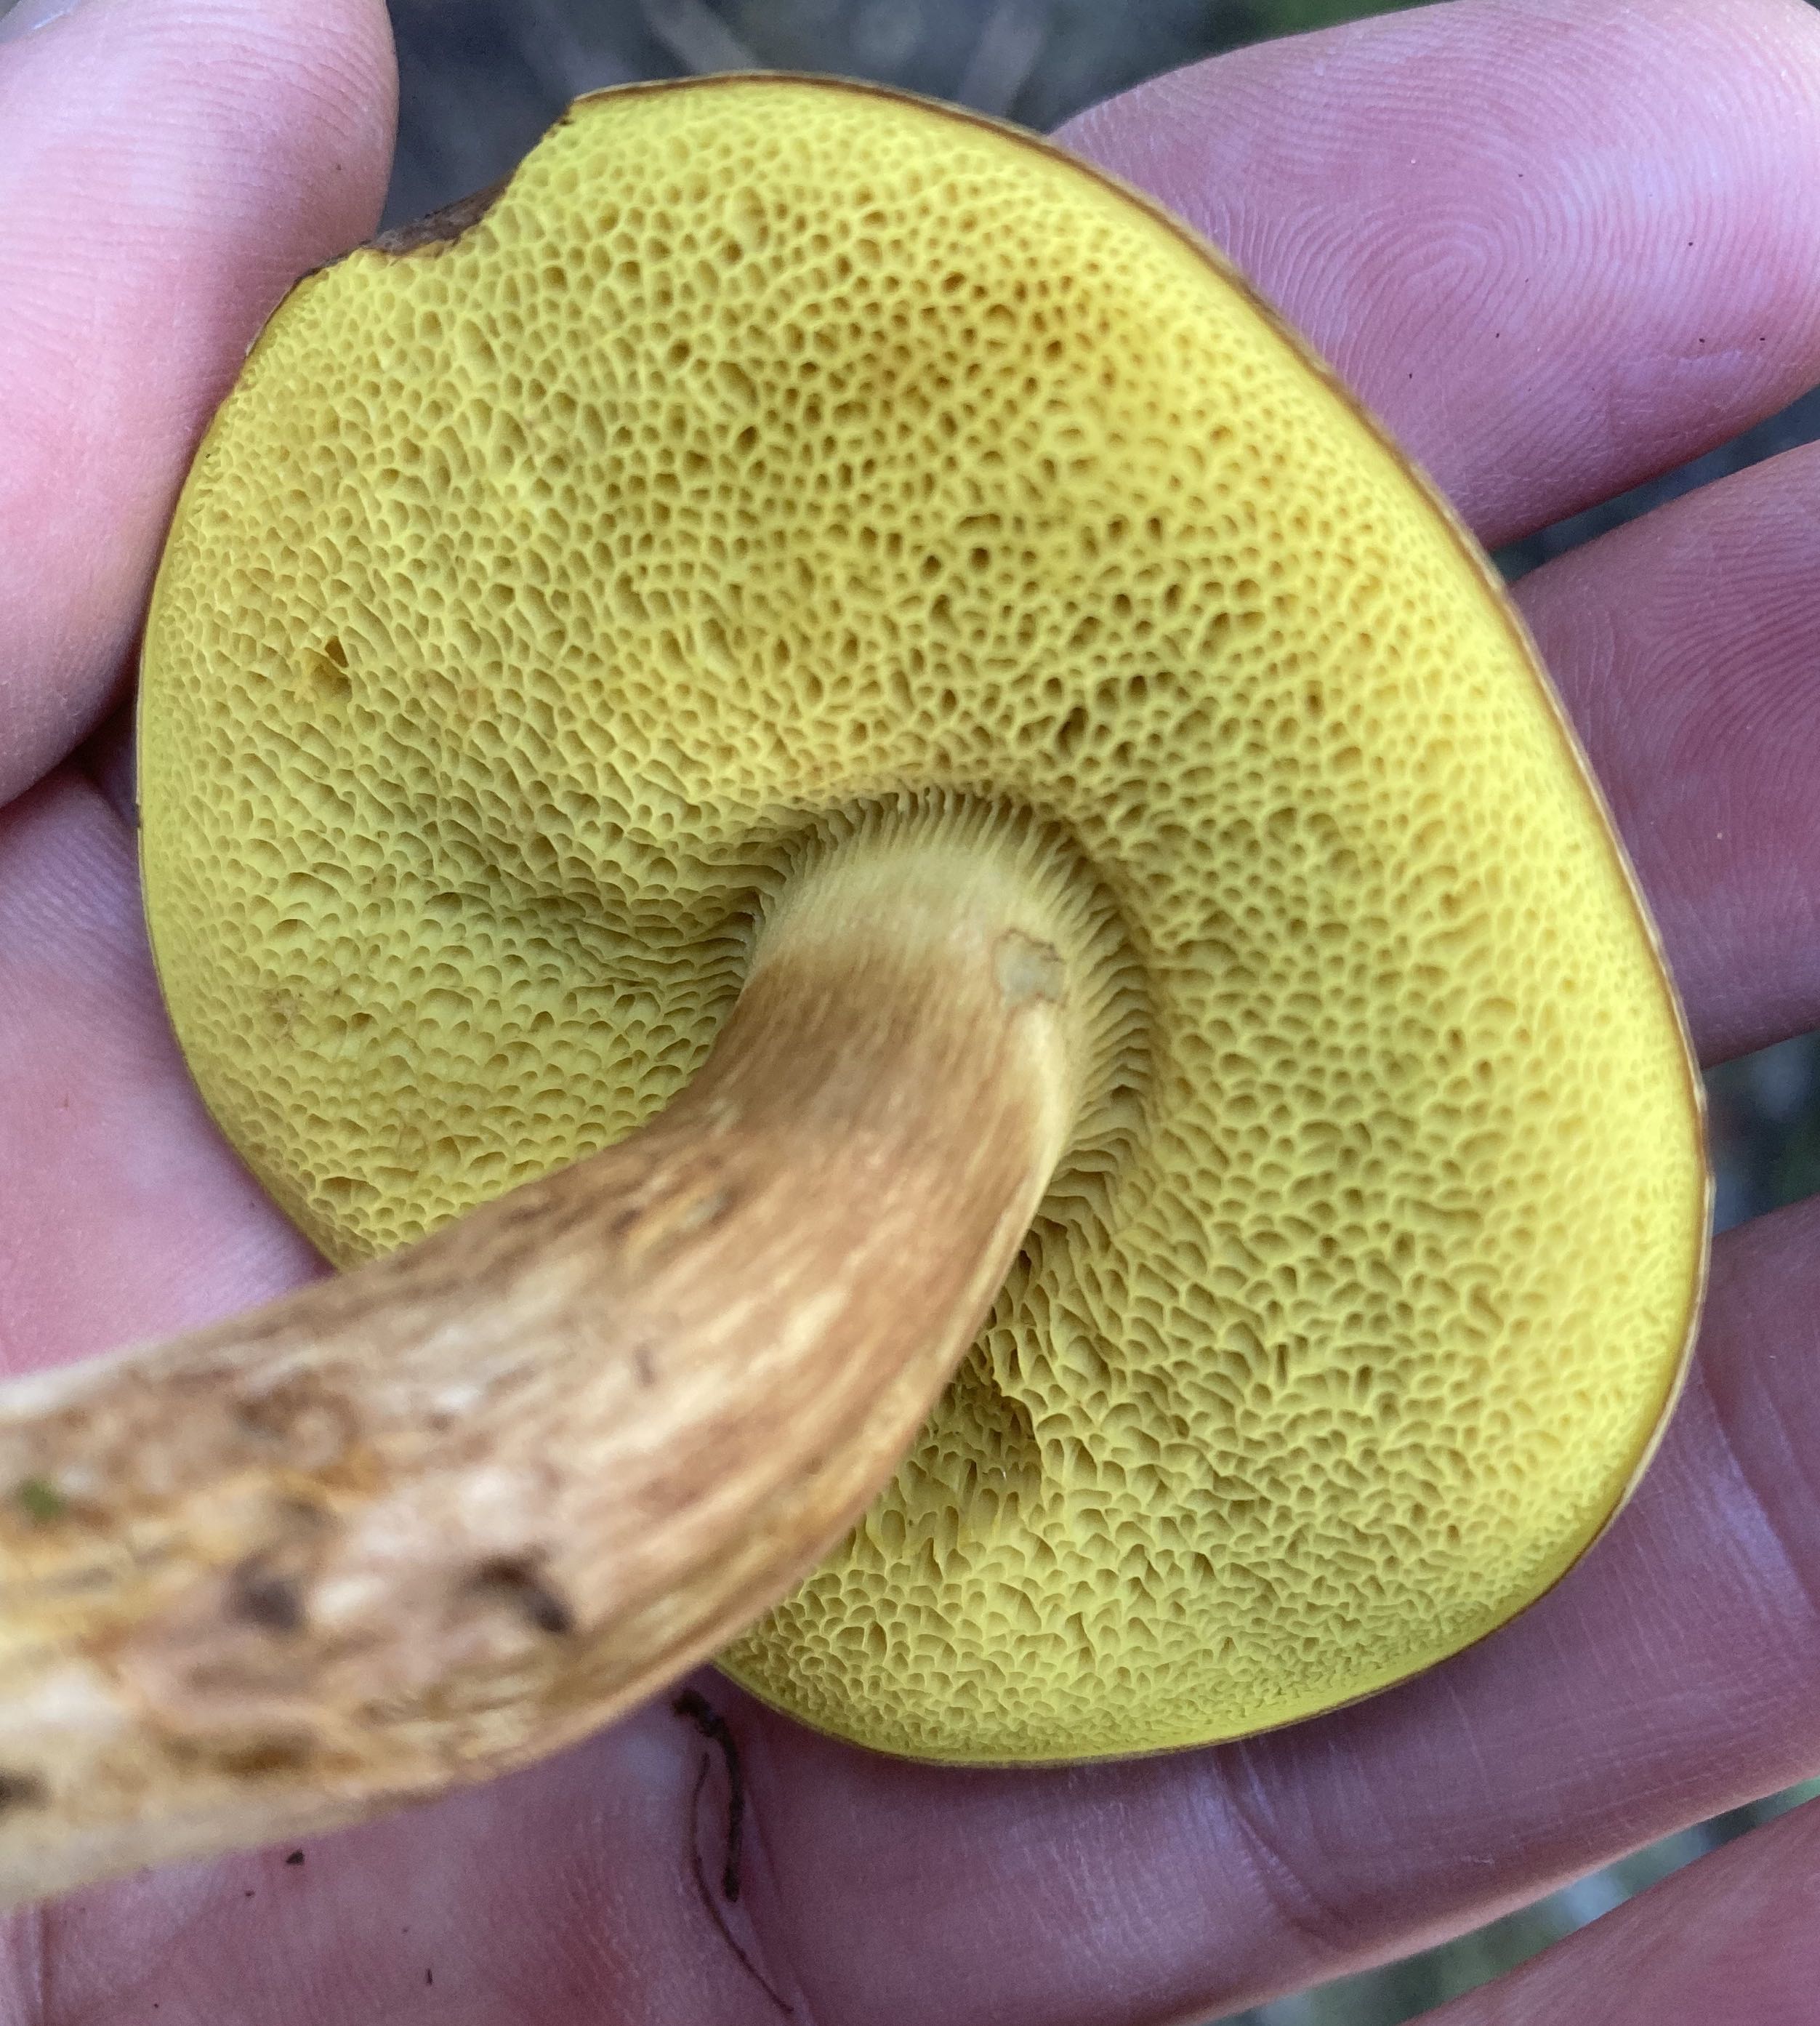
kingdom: Fungi
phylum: Basidiomycota
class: Agaricomycetes
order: Boletales
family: Boletaceae
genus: Xerocomus
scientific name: Xerocomus ferrugineus
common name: vaskeskinds-rørhat
